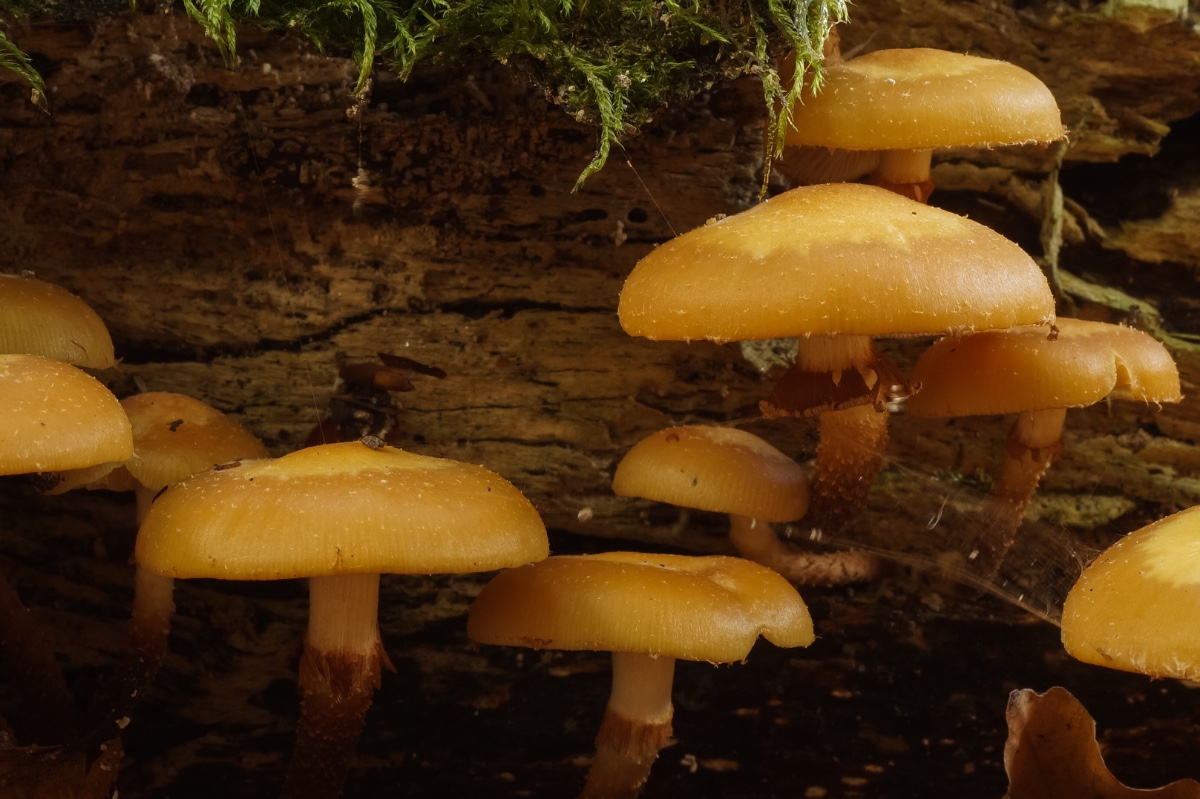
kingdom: Fungi
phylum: Basidiomycota
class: Agaricomycetes
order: Agaricales
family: Strophariaceae
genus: Kuehneromyces
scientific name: Kuehneromyces mutabilis
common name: foranderlig skælhat
